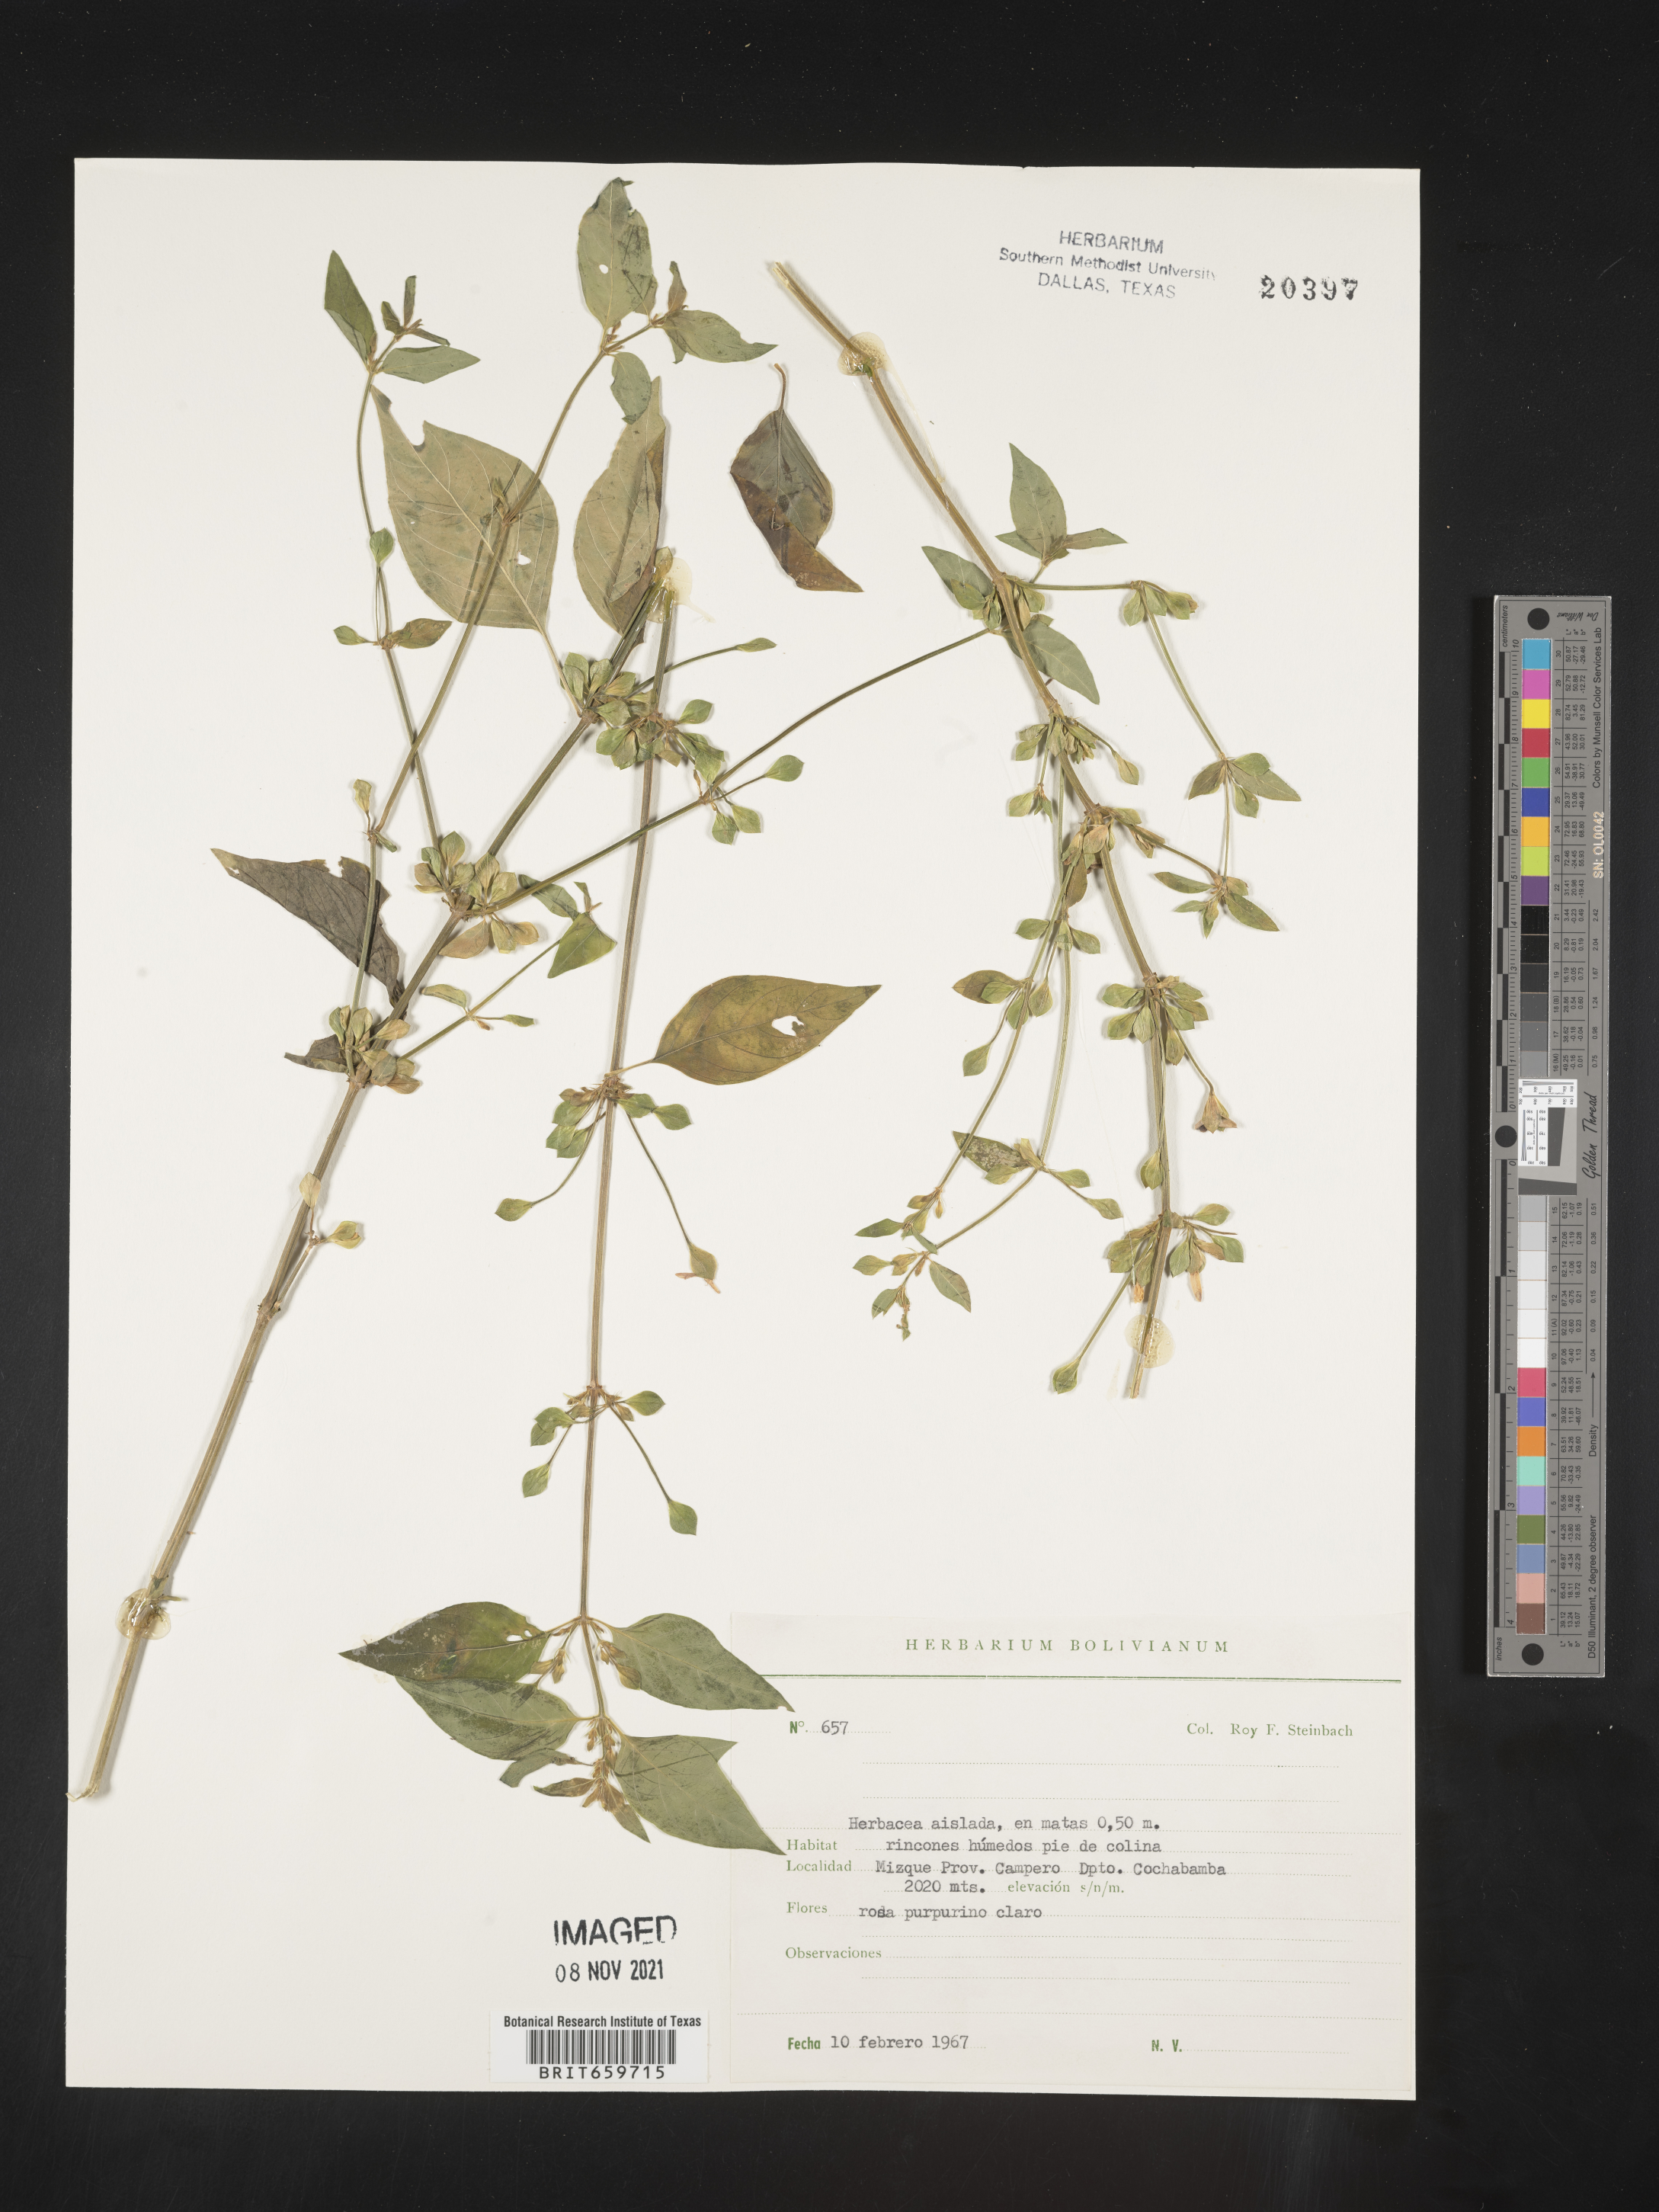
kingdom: Plantae
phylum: Tracheophyta
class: Magnoliopsida
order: Lamiales
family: Acanthaceae
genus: Dicliptera
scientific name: Dicliptera
